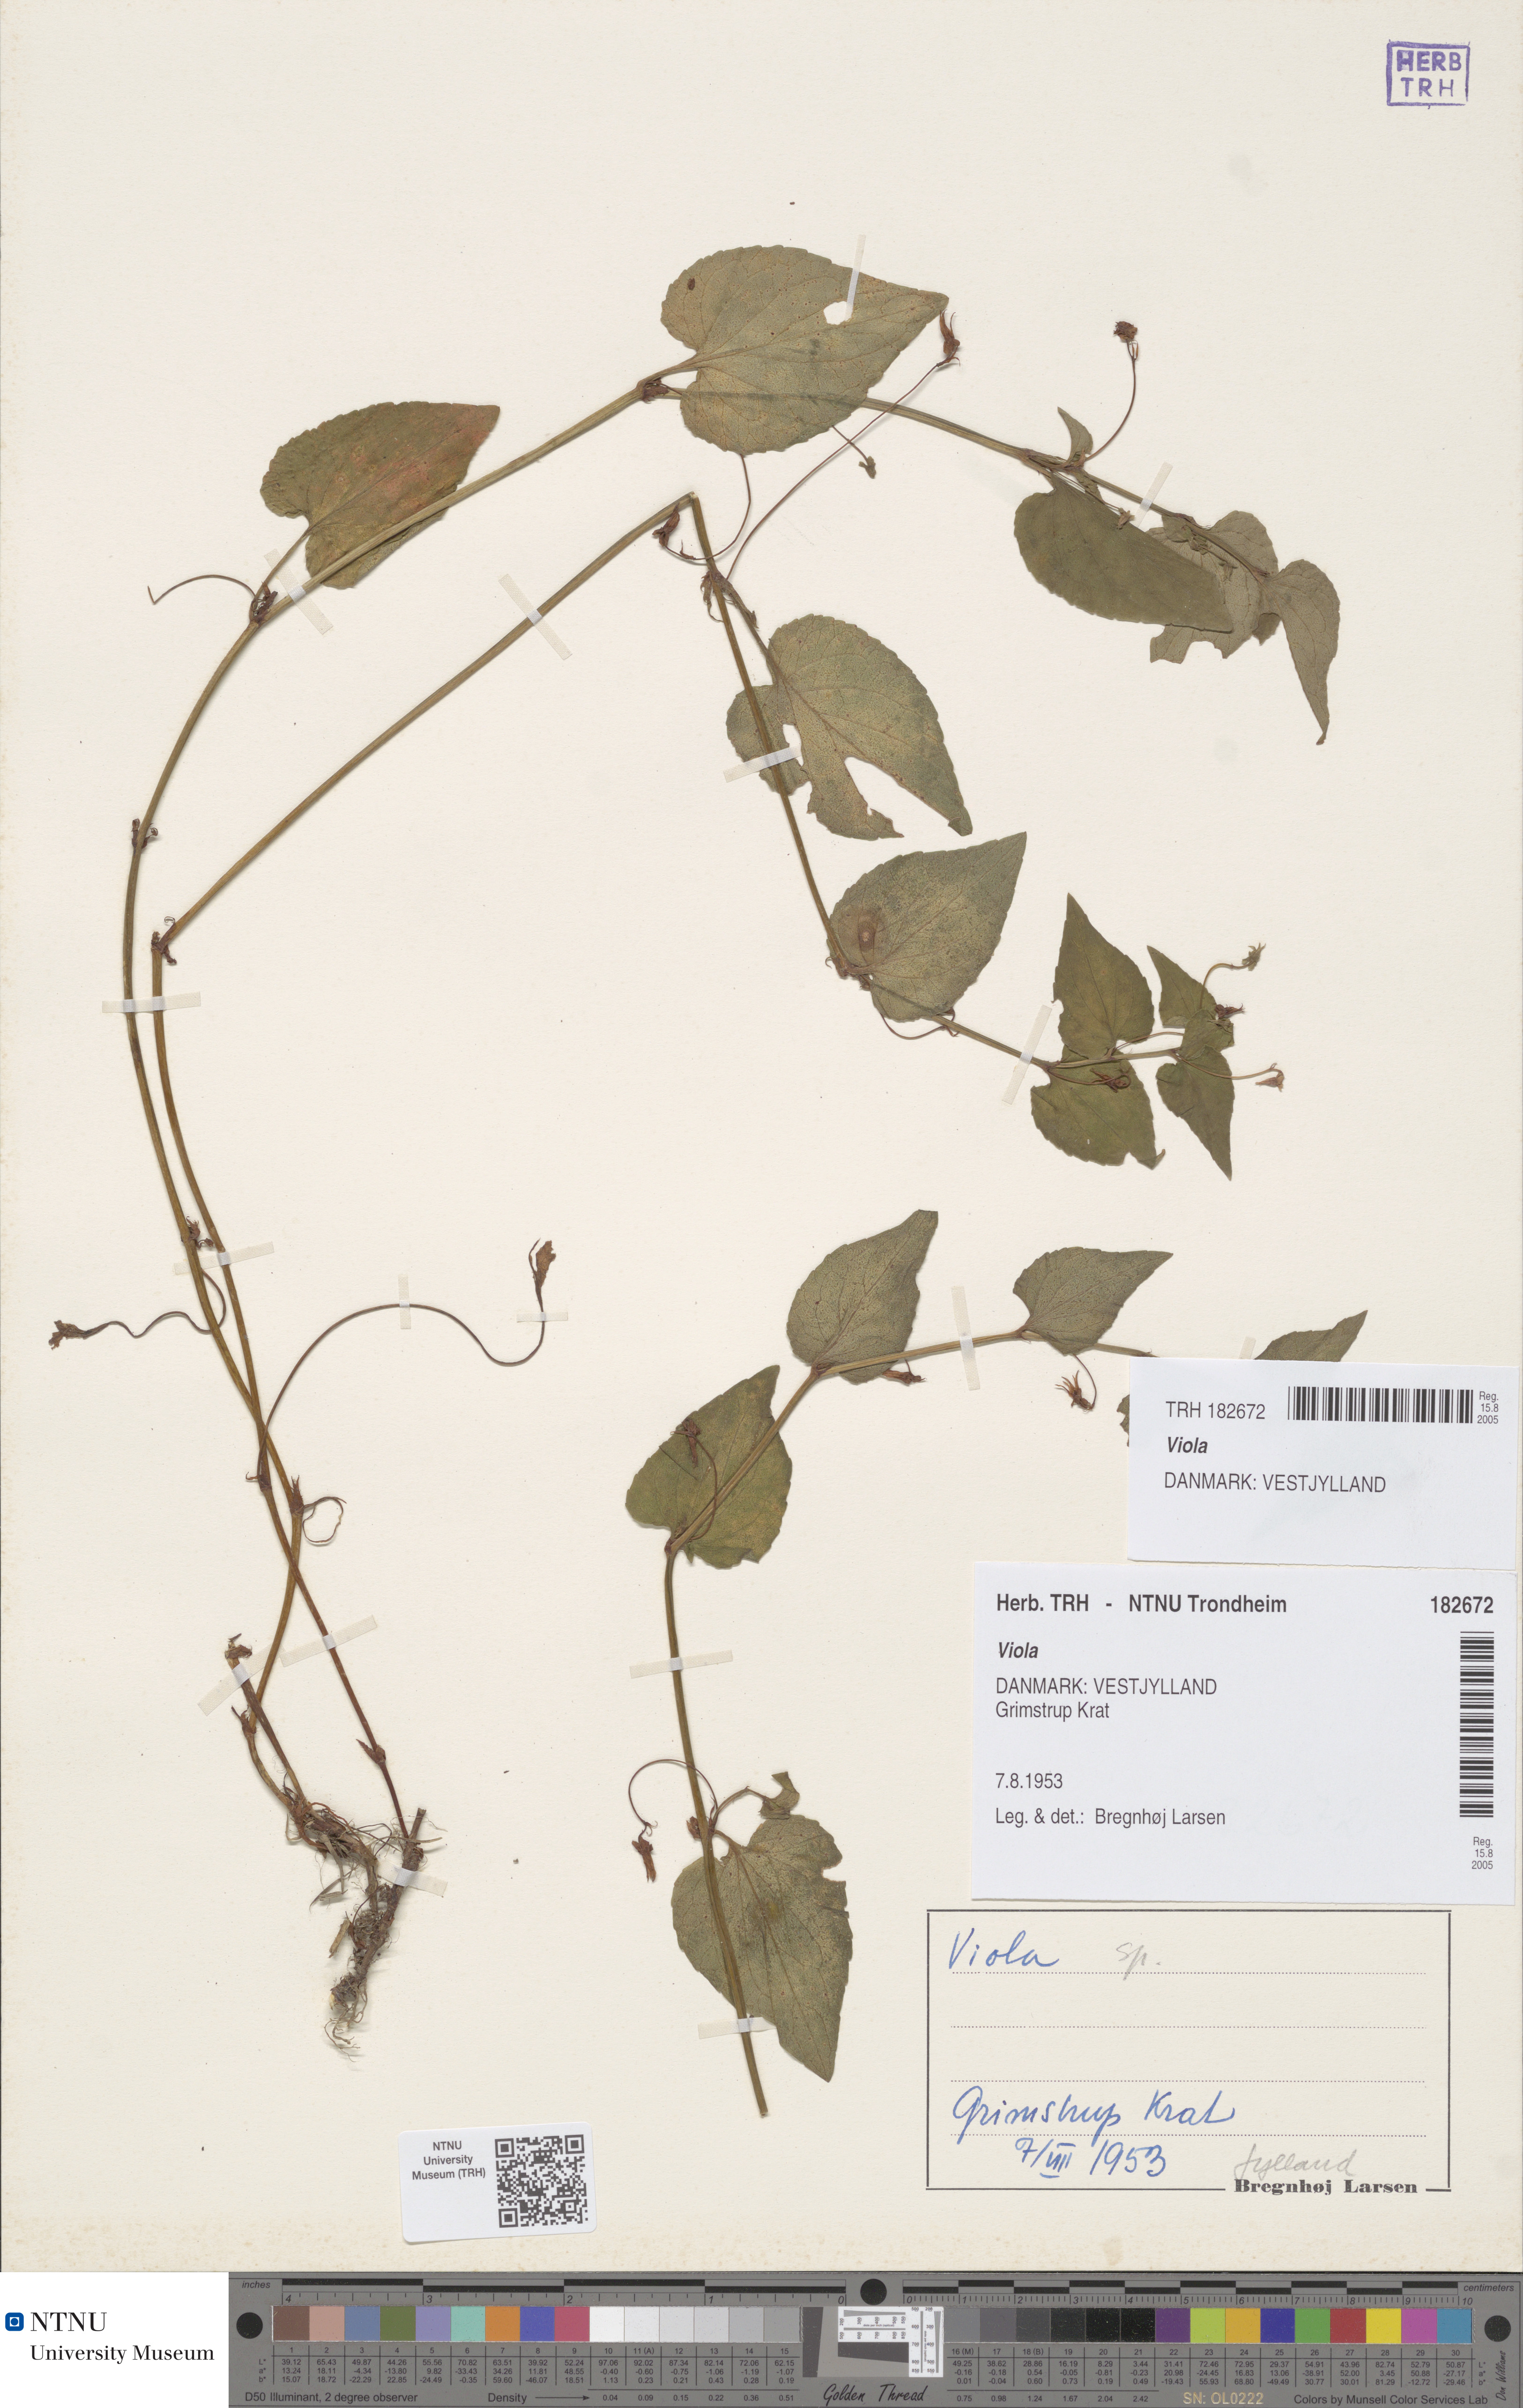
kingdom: Plantae
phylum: Tracheophyta
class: Magnoliopsida
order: Malpighiales
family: Violaceae
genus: Viola
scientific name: Viola
